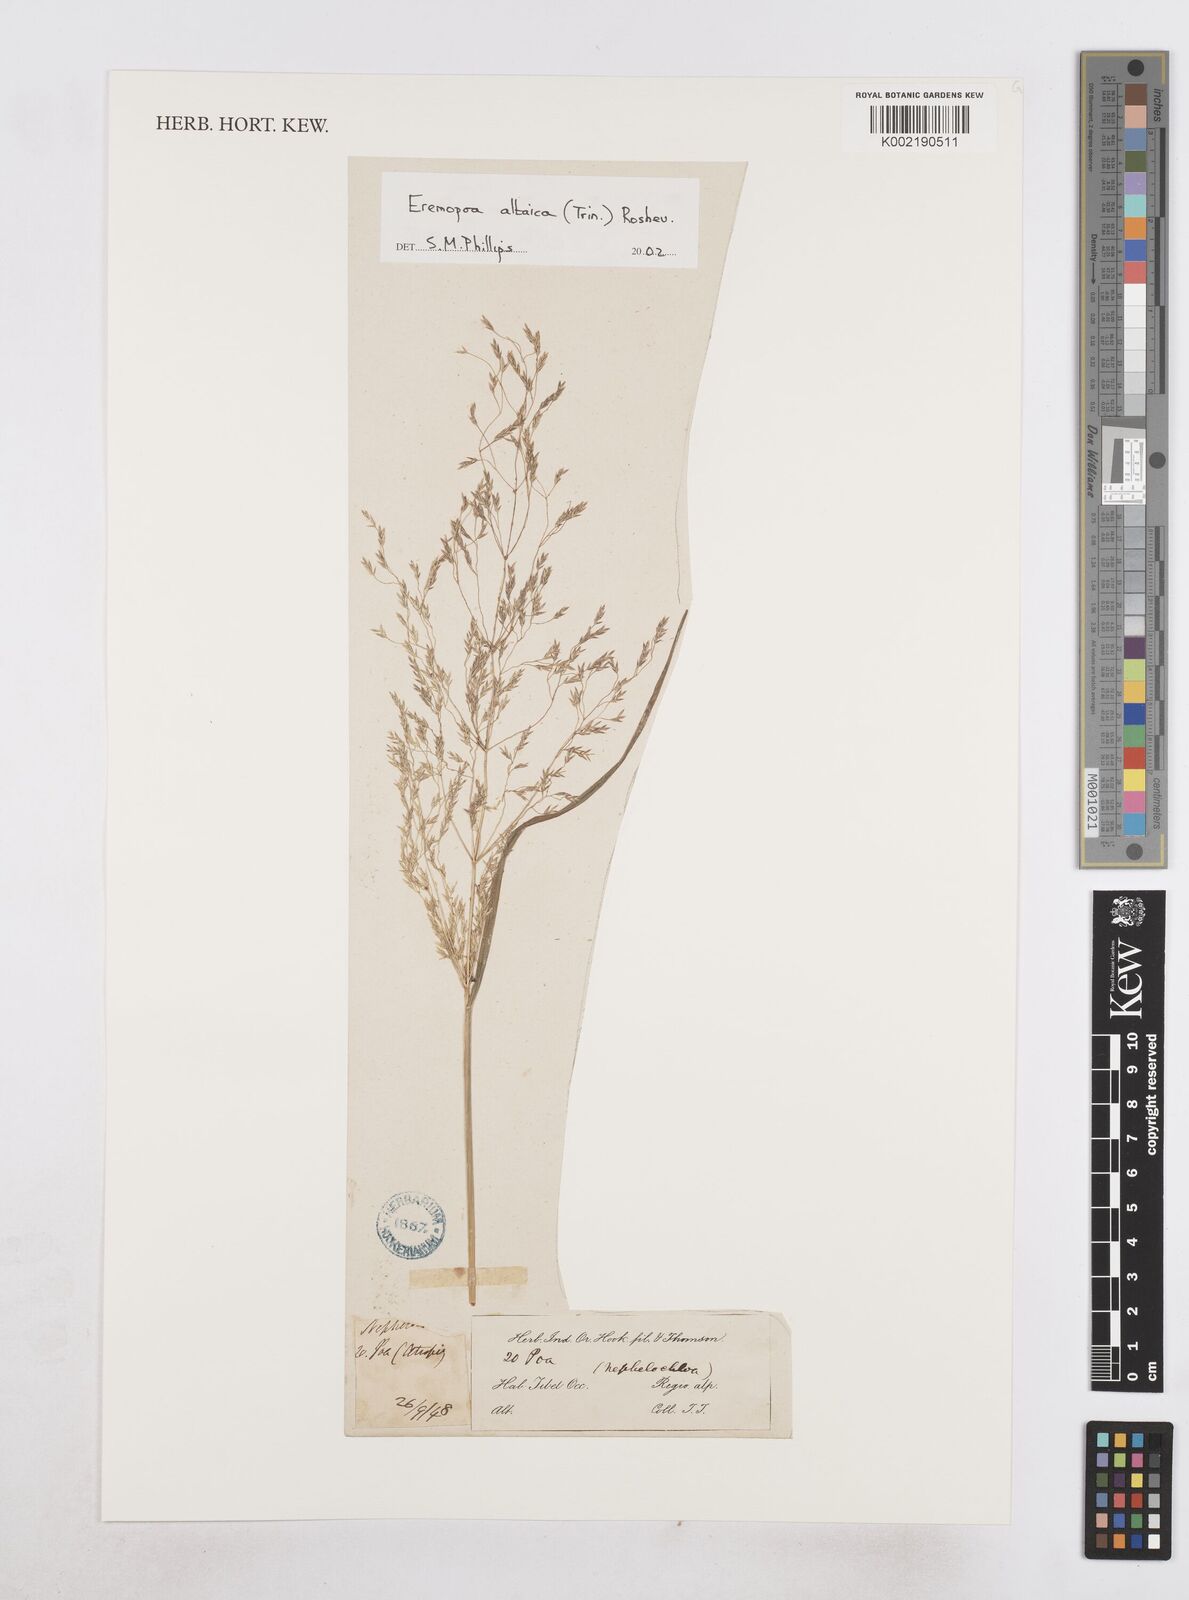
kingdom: Plantae
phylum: Tracheophyta
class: Liliopsida
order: Poales
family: Poaceae
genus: Poa
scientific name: Poa diaphora
